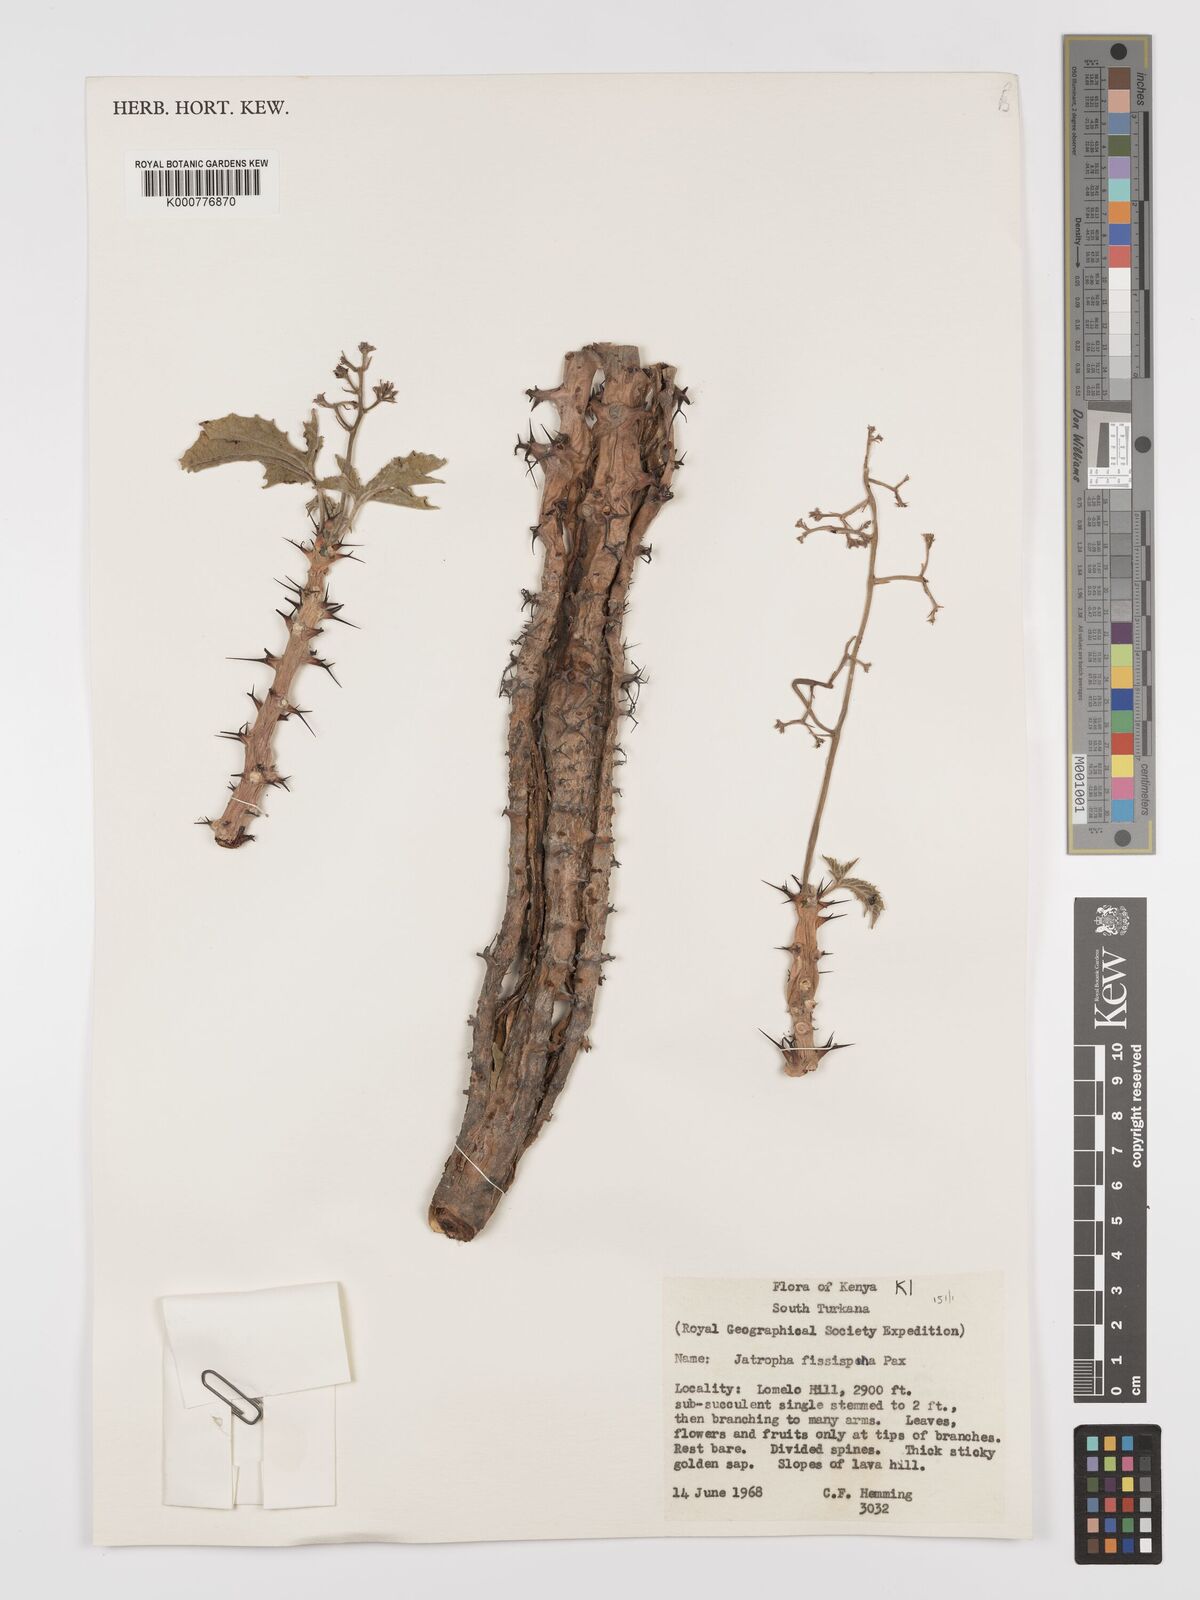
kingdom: Plantae
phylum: Tracheophyta
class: Magnoliopsida
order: Malpighiales
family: Euphorbiaceae
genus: Jatropha
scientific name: Jatropha ellenbeckii
